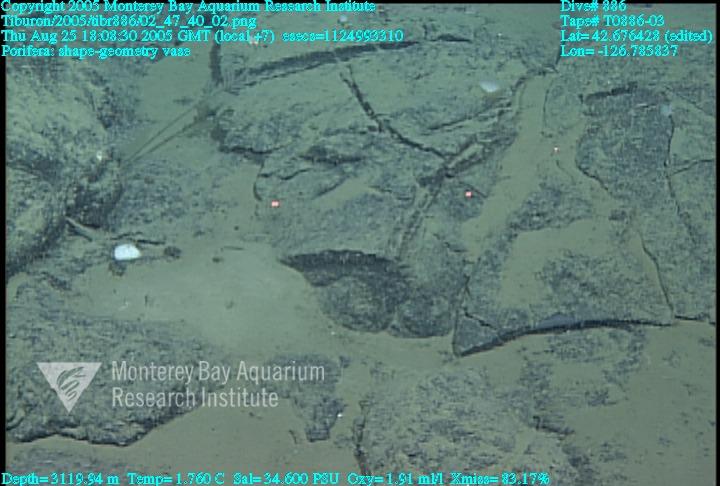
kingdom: Animalia
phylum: Porifera
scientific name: Porifera
